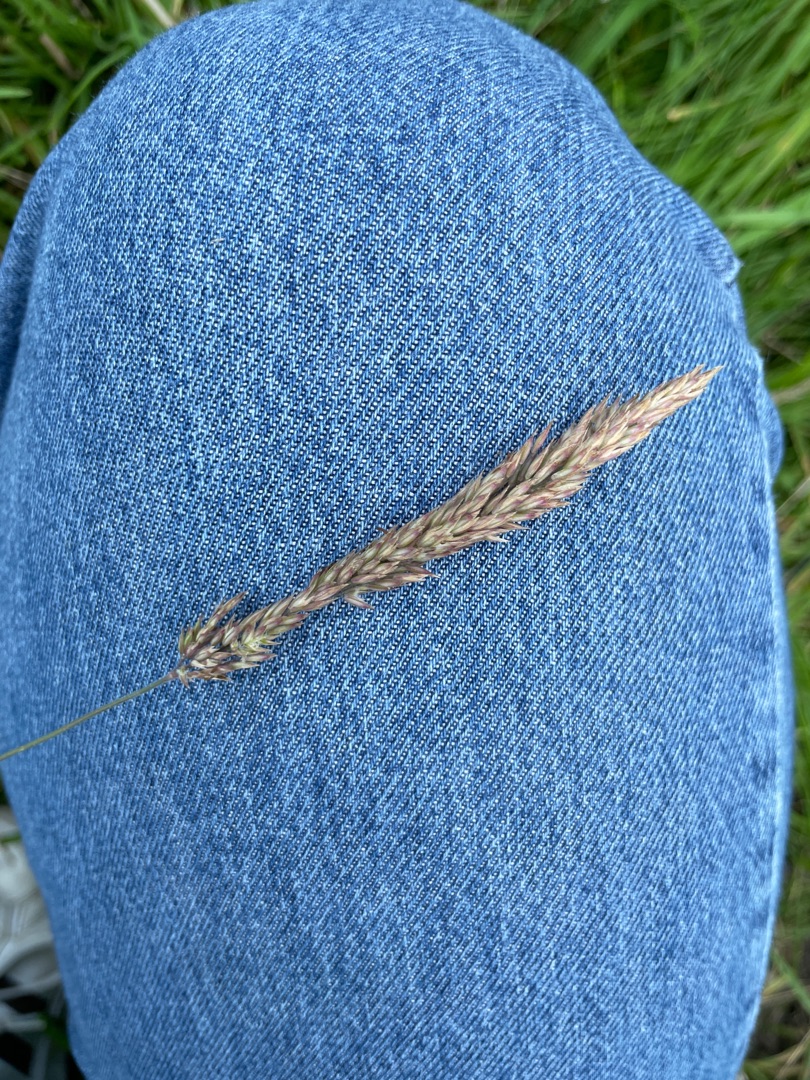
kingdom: Plantae
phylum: Tracheophyta
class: Liliopsida
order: Poales
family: Poaceae
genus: Holcus
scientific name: Holcus lanatus
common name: Fløjlsgræs
